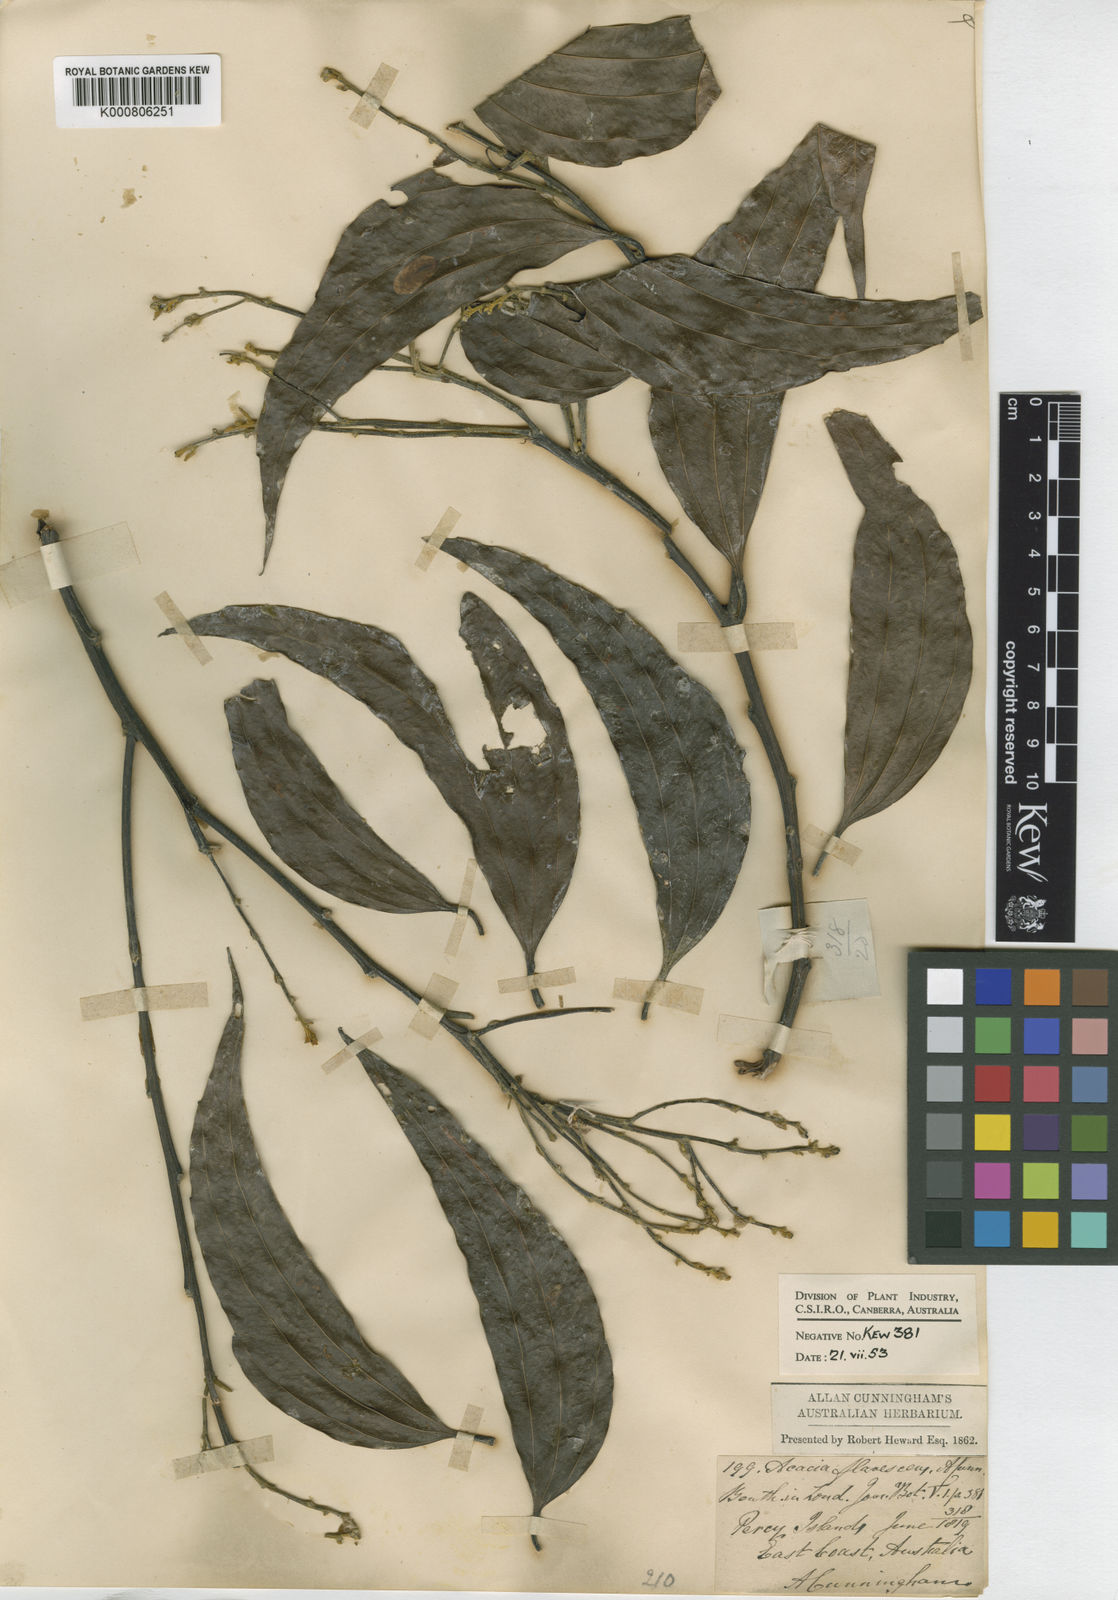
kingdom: Plantae
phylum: Tracheophyta
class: Magnoliopsida
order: Fabales
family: Fabaceae
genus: Acacia
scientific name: Acacia
